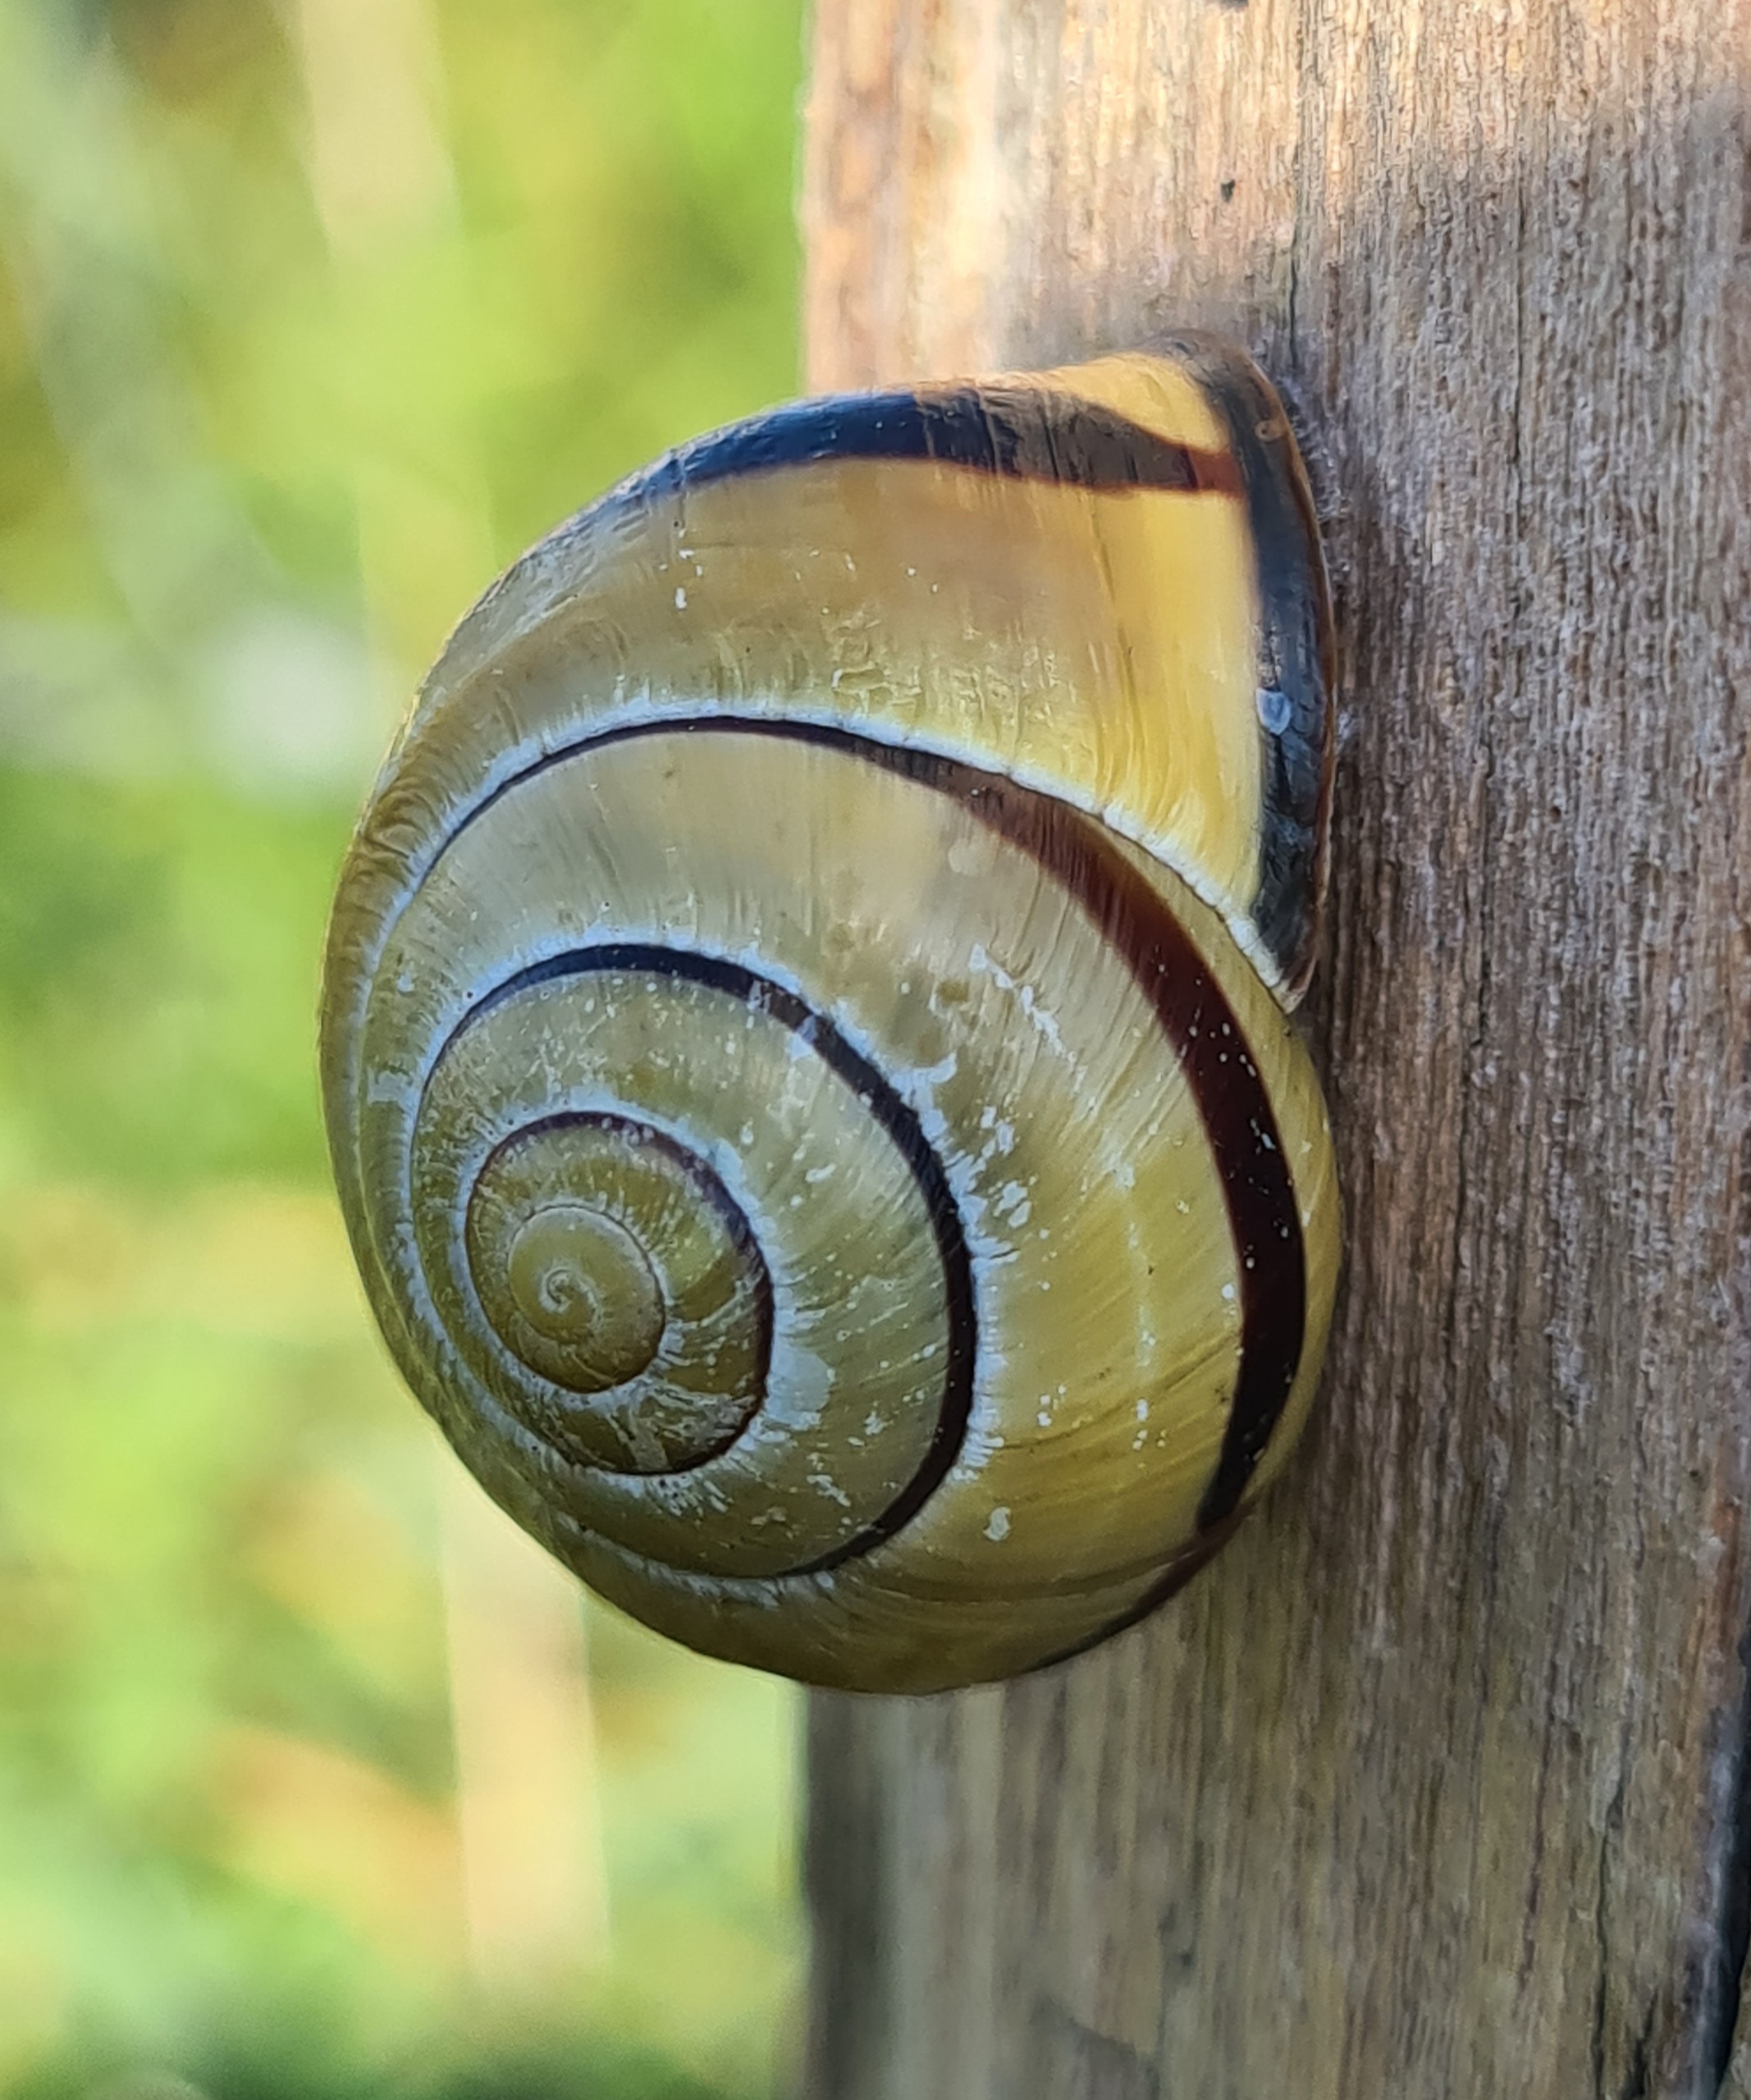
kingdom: Animalia
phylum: Mollusca
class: Gastropoda
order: Stylommatophora
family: Helicidae
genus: Cepaea
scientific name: Cepaea nemoralis
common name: Lundsnegl
